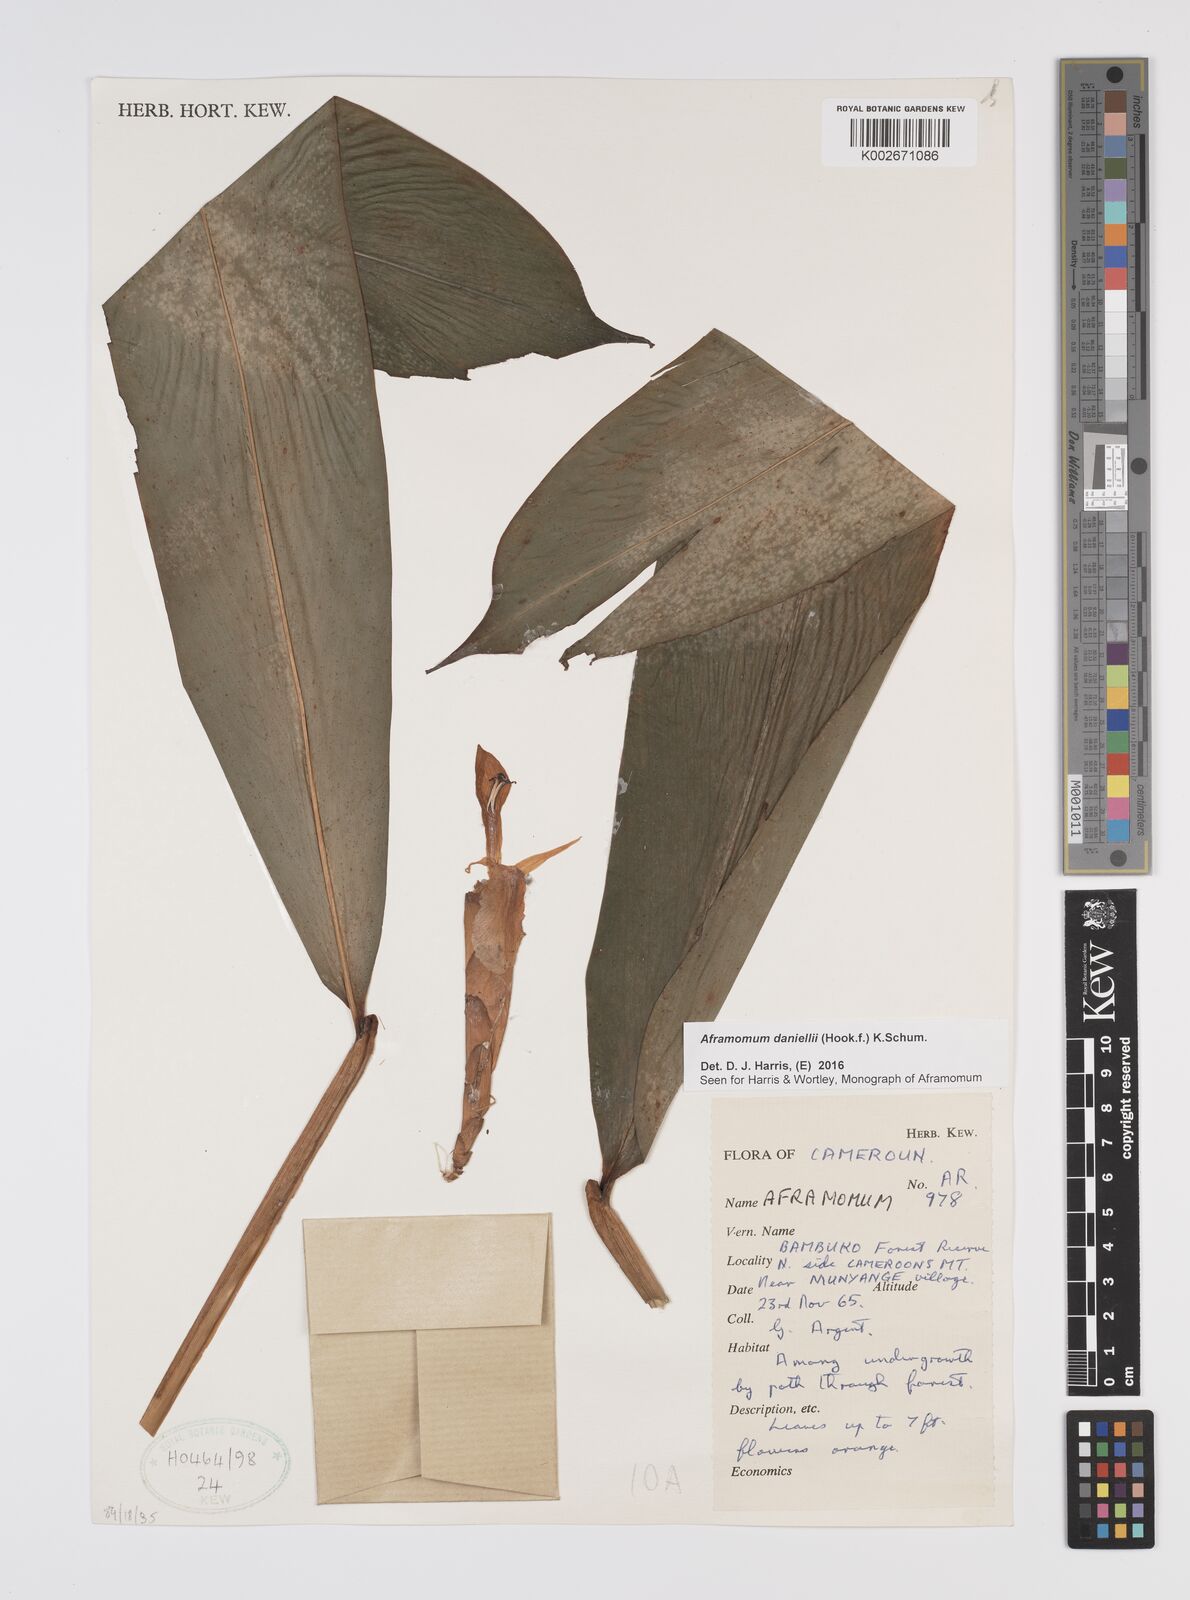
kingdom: Plantae
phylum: Tracheophyta
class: Liliopsida
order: Zingiberales
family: Zingiberaceae
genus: Aframomum
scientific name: Aframomum daniellii
